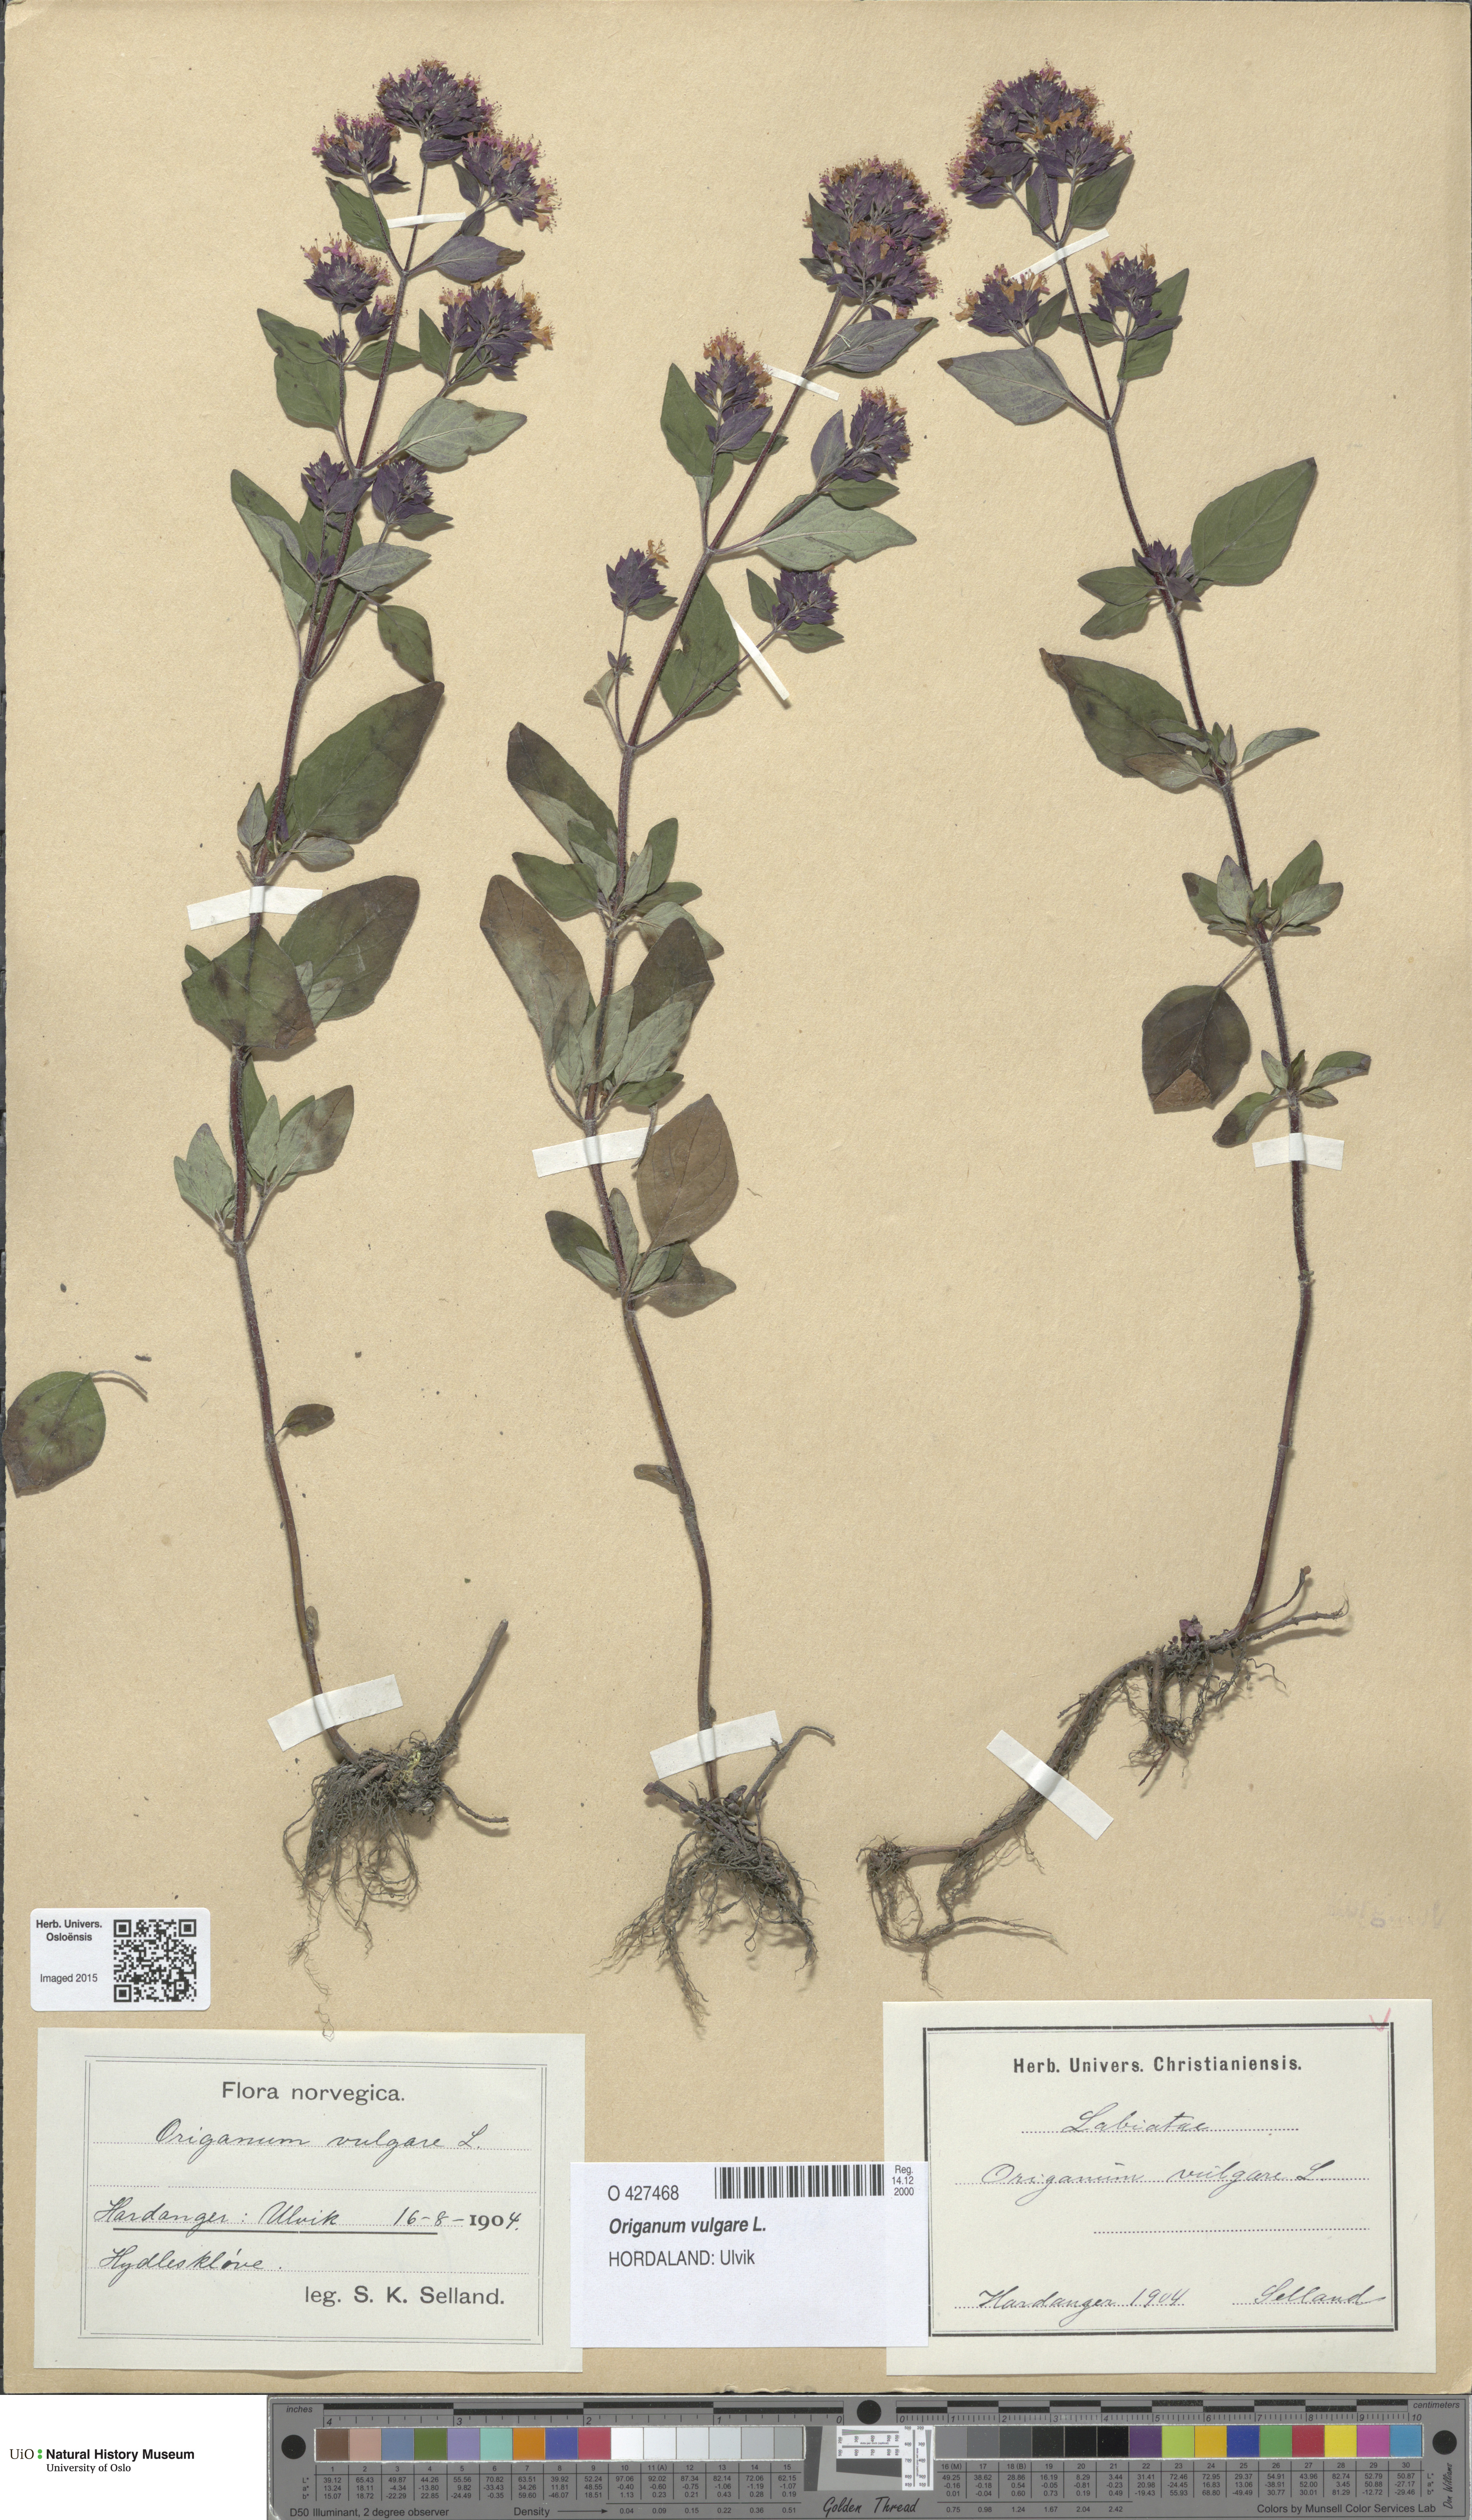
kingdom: Plantae
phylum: Tracheophyta
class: Magnoliopsida
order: Lamiales
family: Lamiaceae
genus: Origanum
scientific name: Origanum vulgare
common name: Wild marjoram
